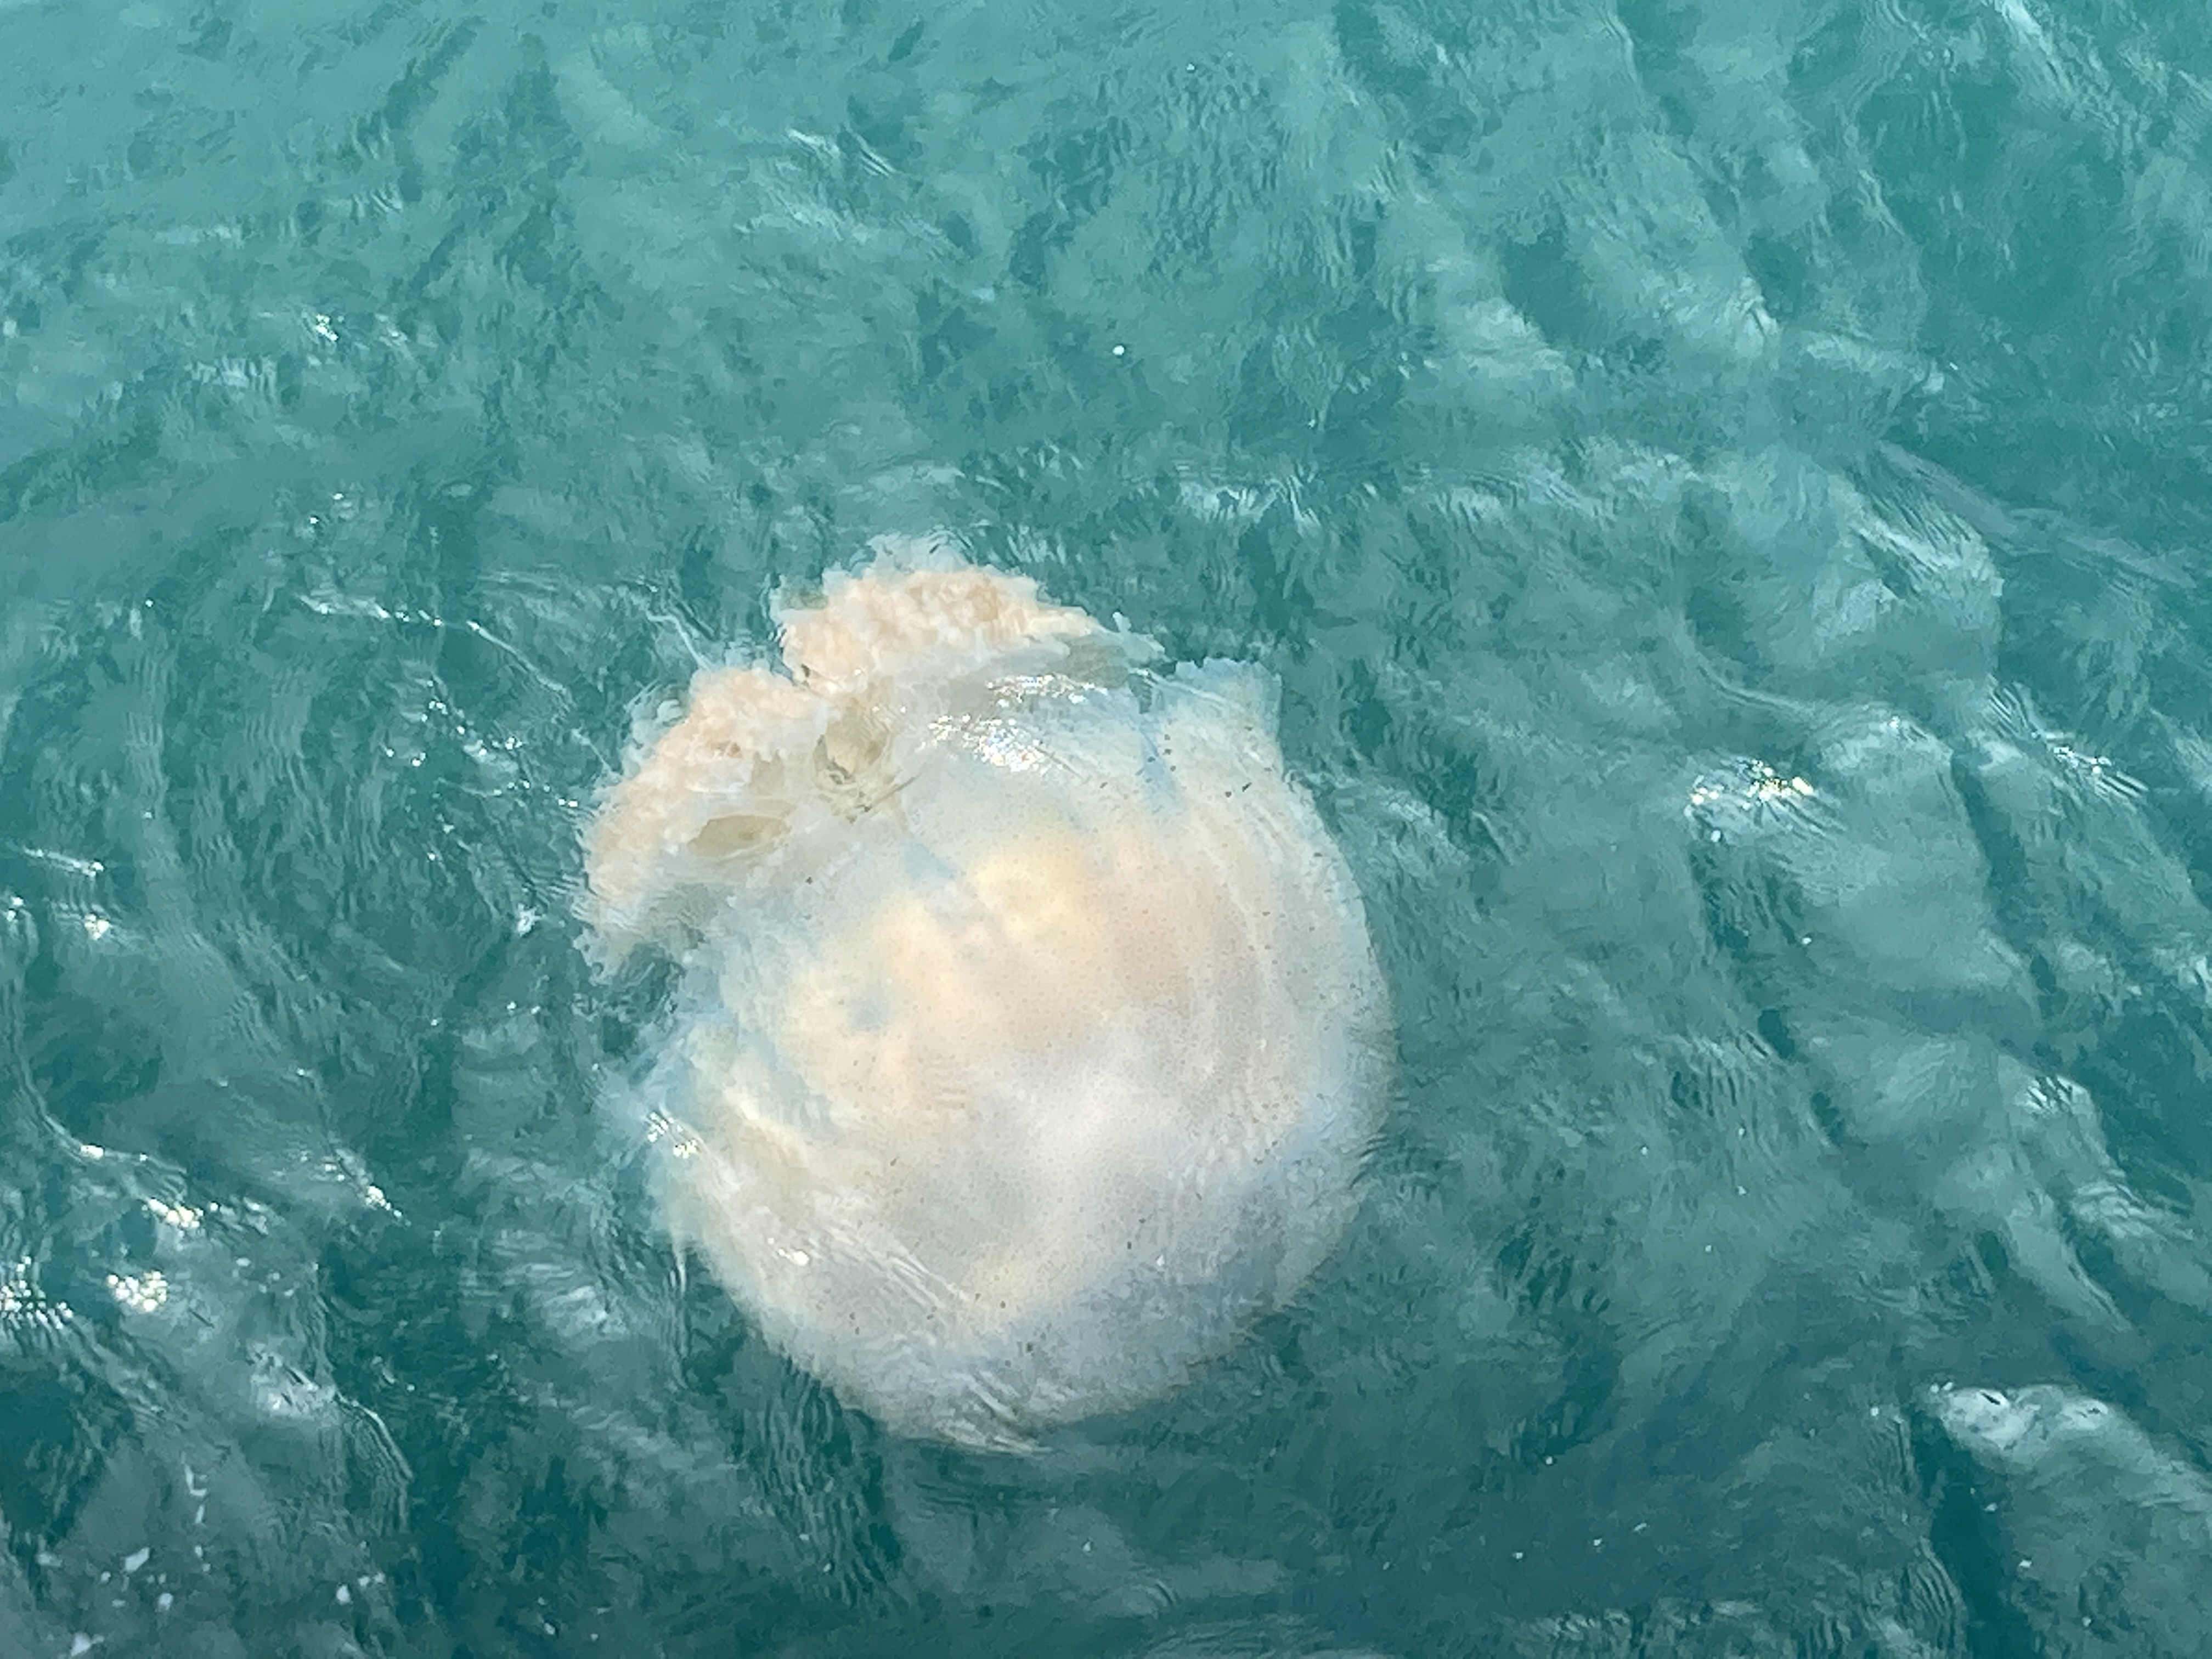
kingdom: Animalia
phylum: Cnidaria
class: Scyphozoa
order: Rhizostomeae
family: Rhizostomatidae
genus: Rhopilema
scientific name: Rhopilema hispidum
